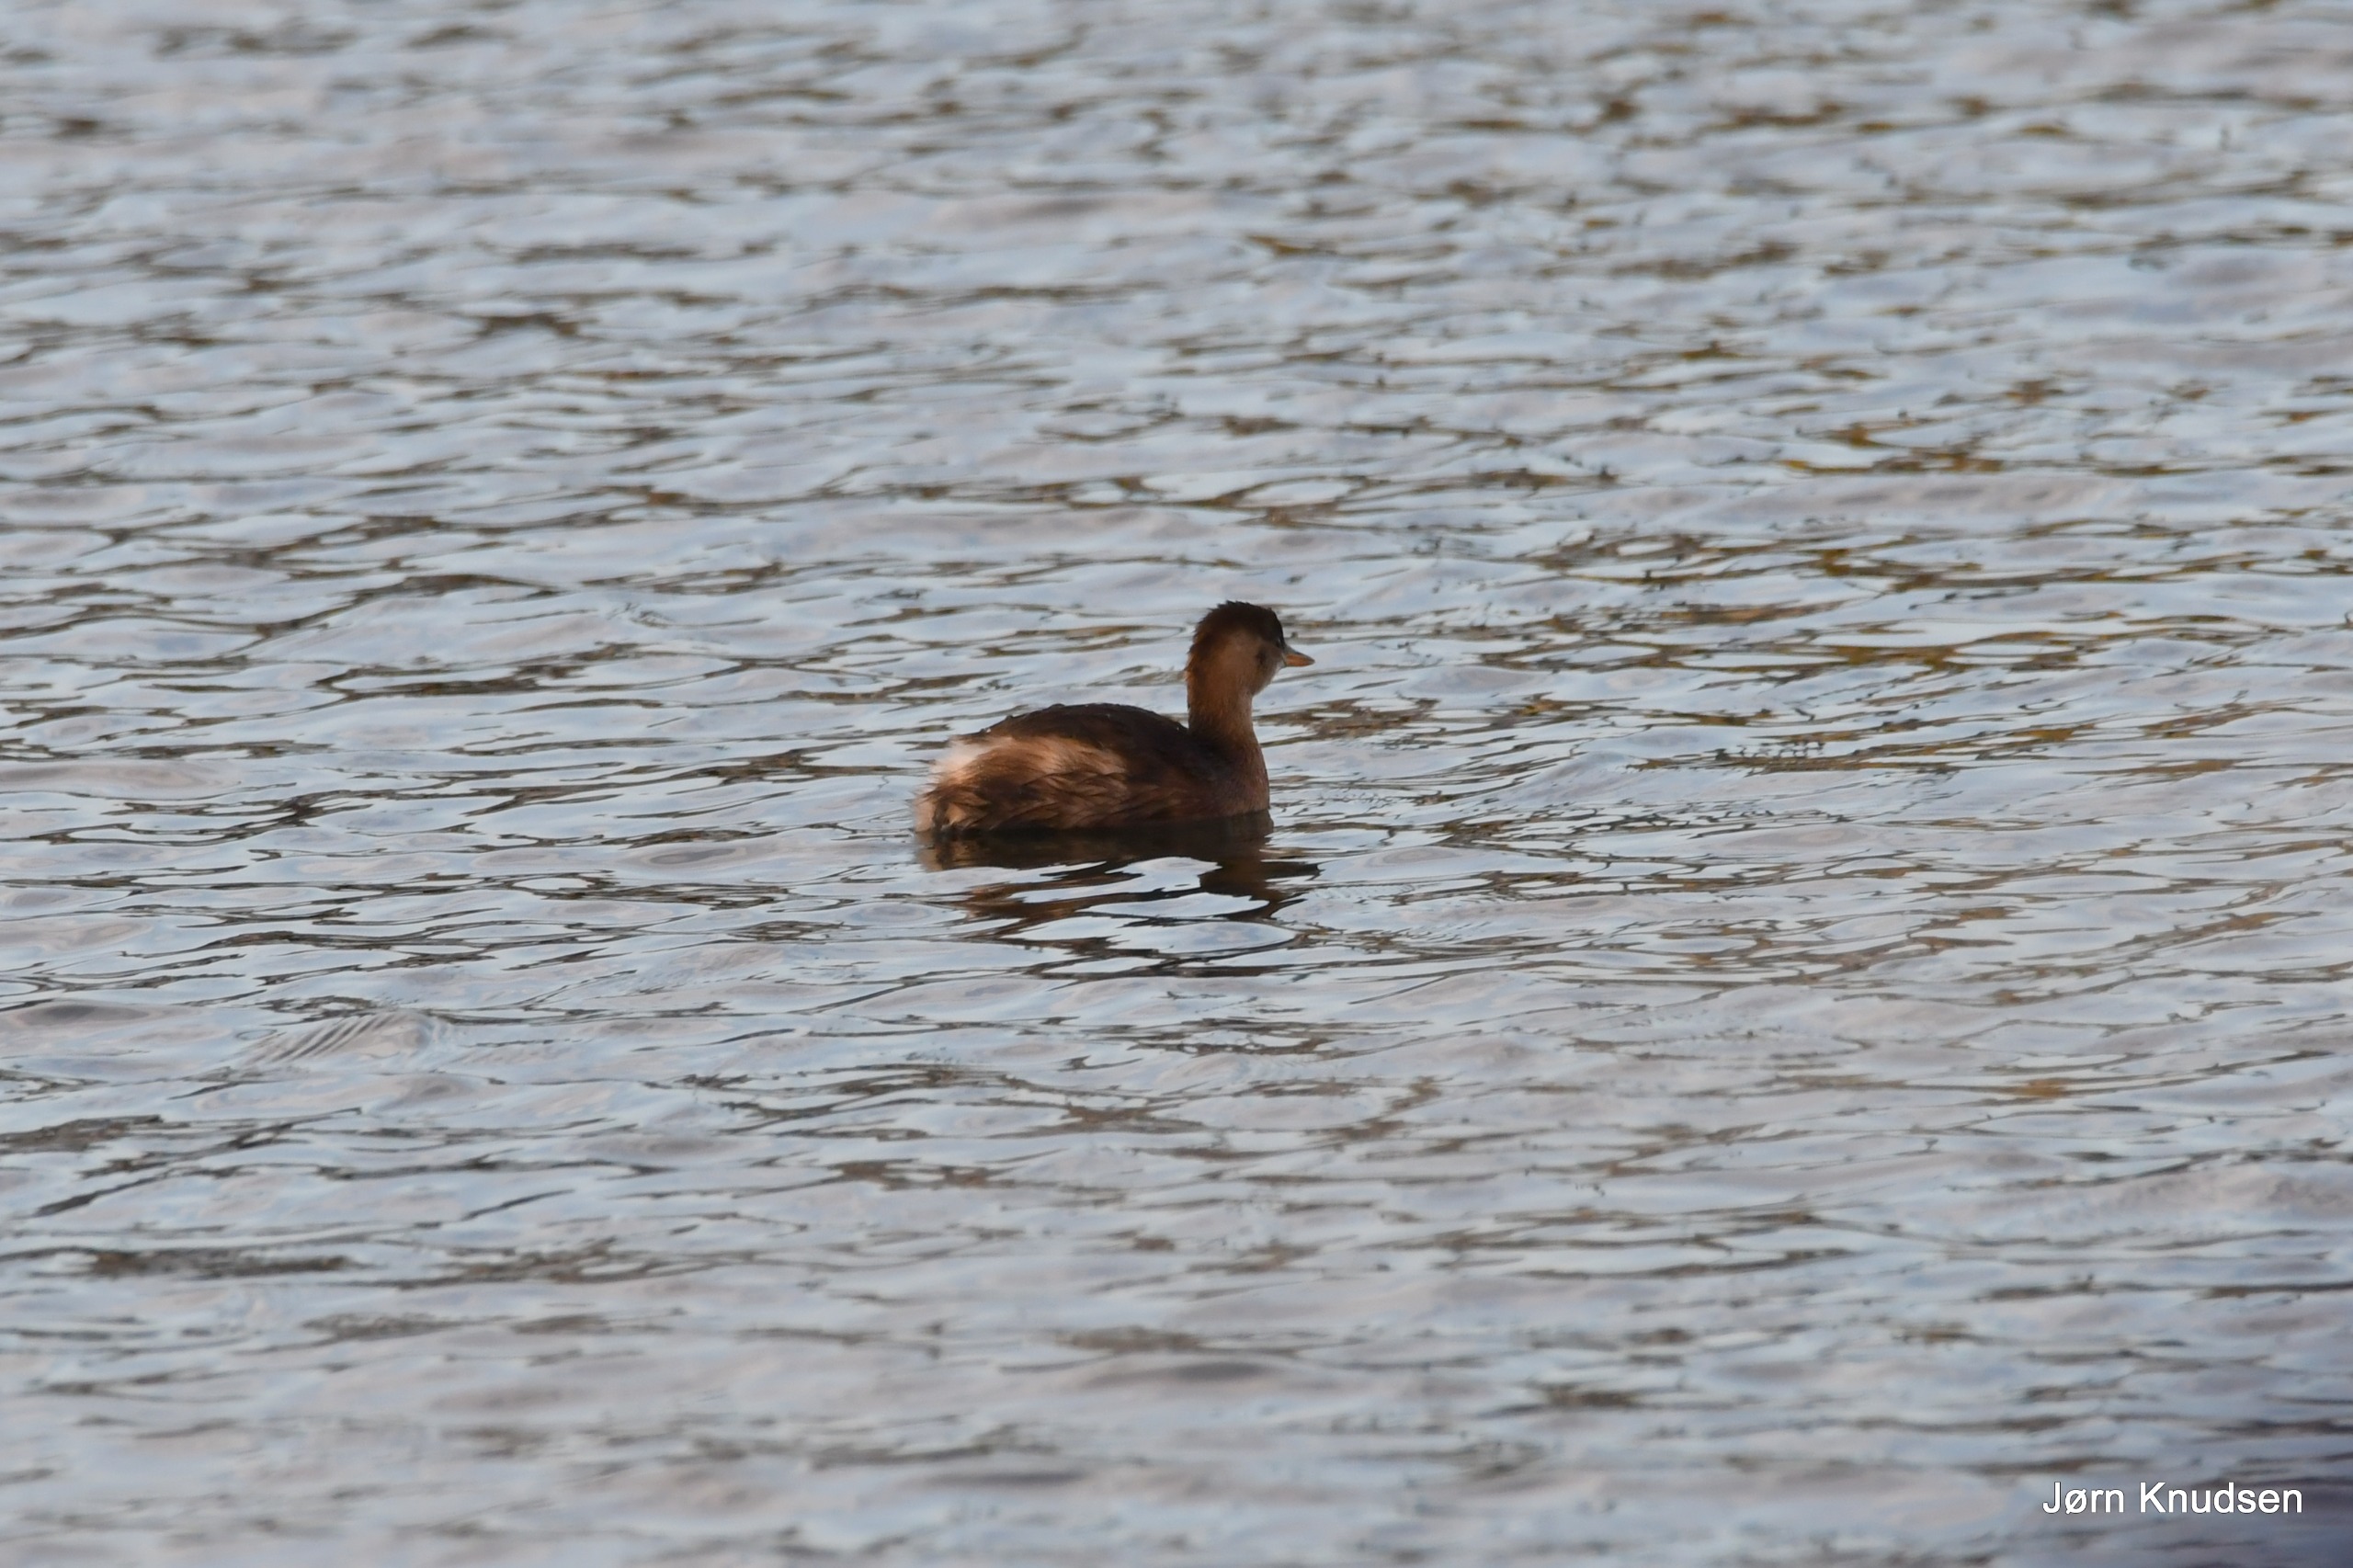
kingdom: Animalia
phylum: Chordata
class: Aves
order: Podicipediformes
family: Podicipedidae
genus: Tachybaptus
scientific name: Tachybaptus ruficollis
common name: Lille lappedykker
